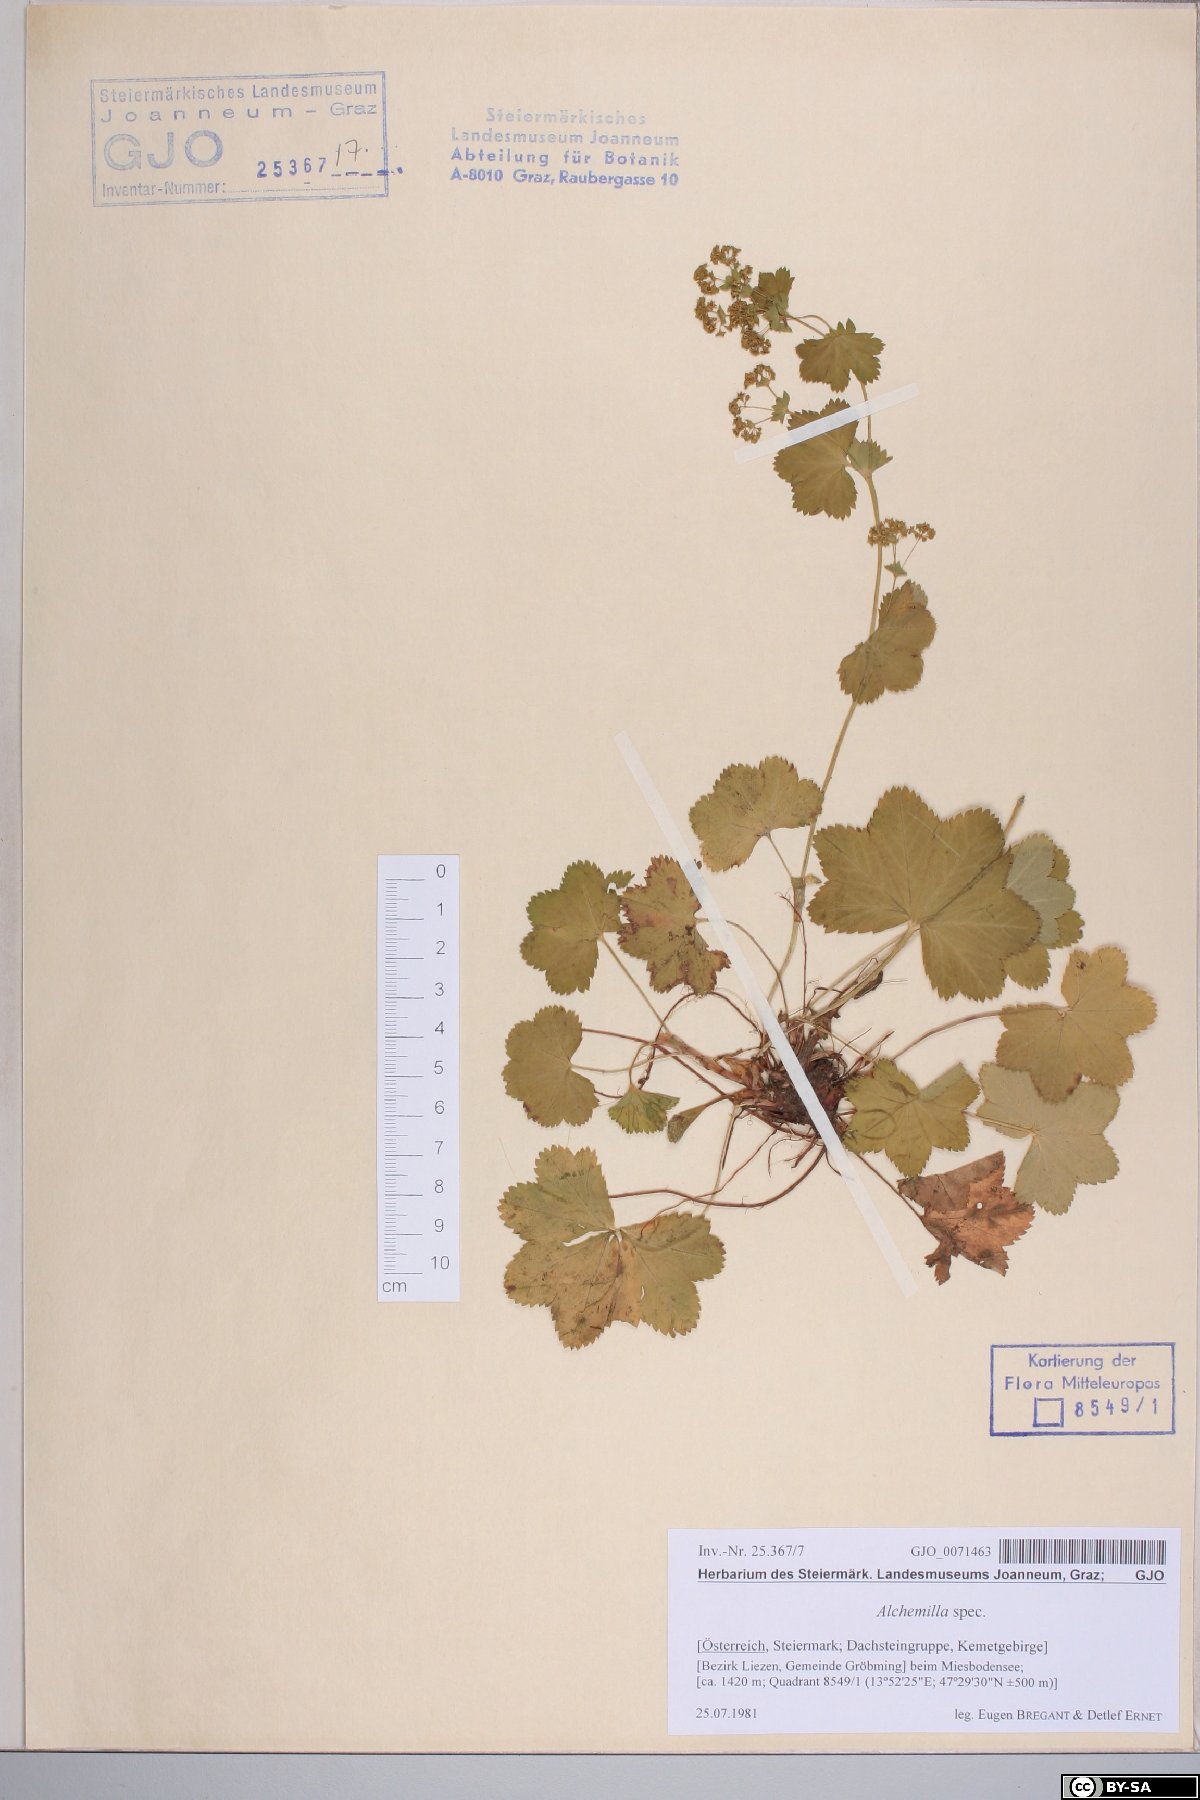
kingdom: Plantae
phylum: Tracheophyta
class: Magnoliopsida
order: Rosales
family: Rosaceae
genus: Alchemilla
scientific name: Alchemilla
